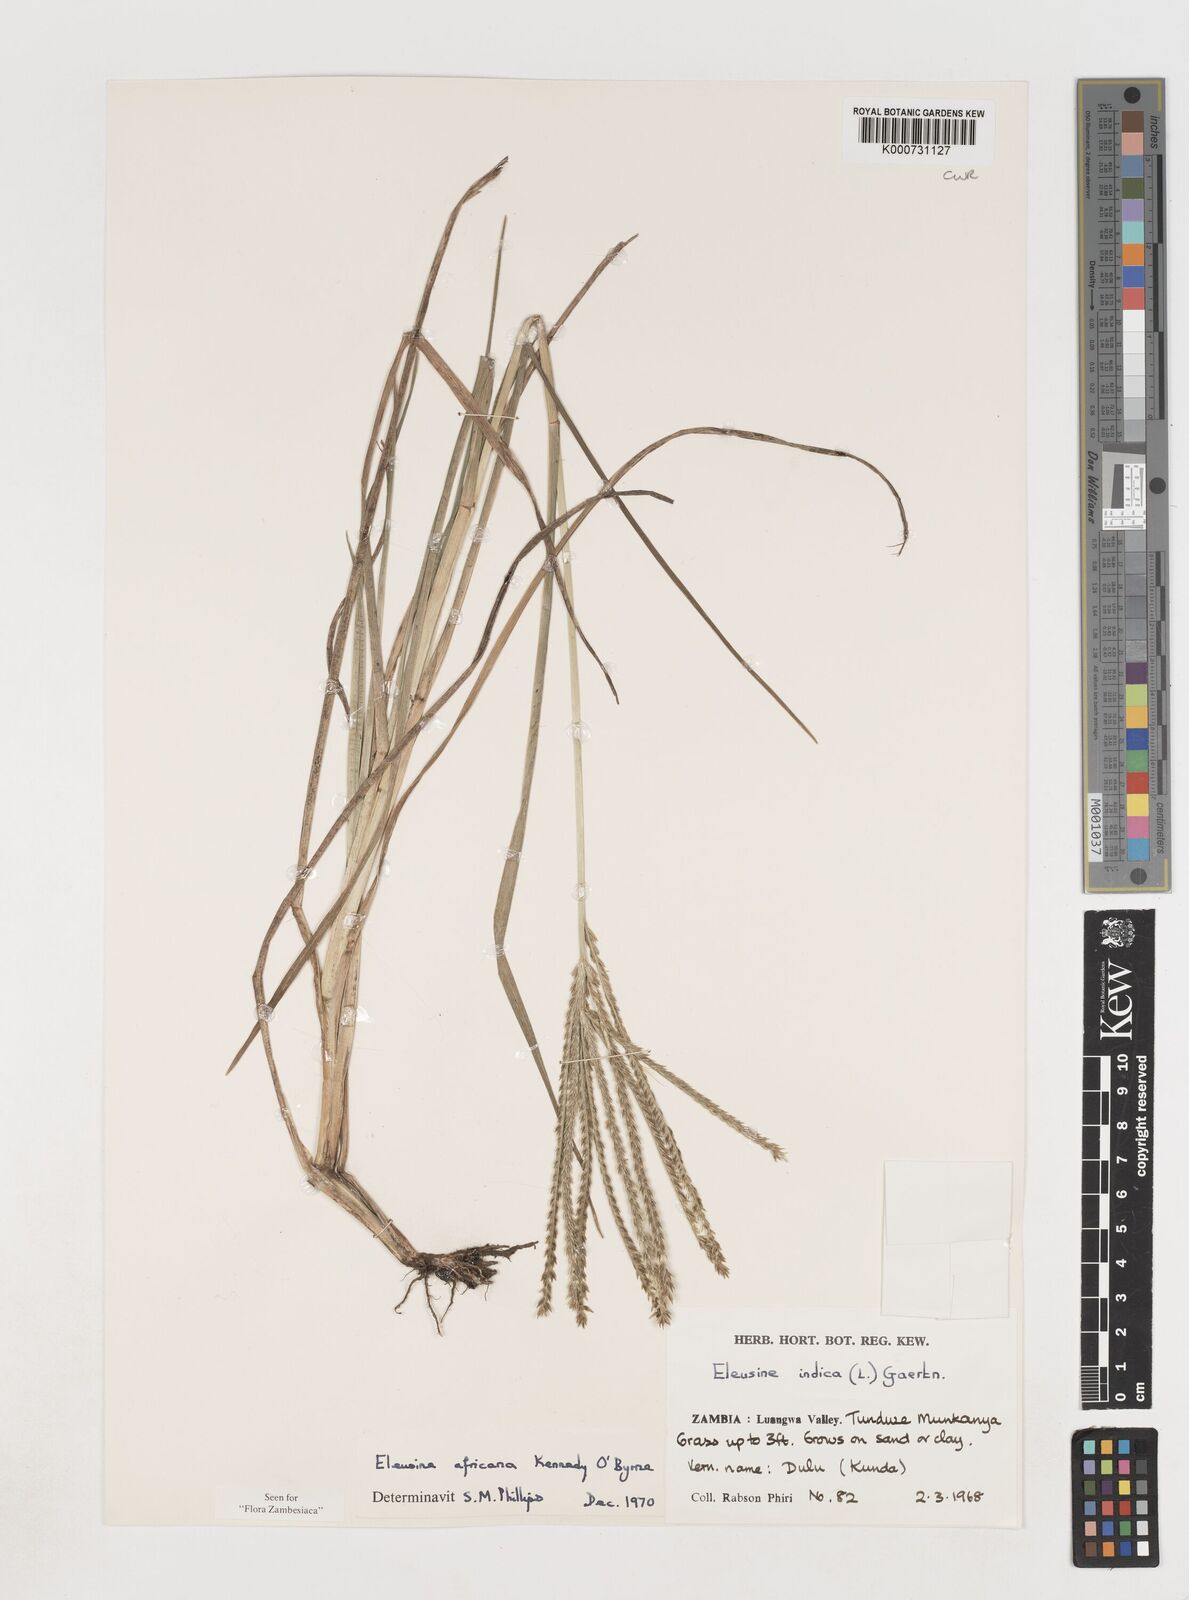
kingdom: Plantae
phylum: Tracheophyta
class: Liliopsida
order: Poales
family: Poaceae
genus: Eleusine
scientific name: Eleusine
